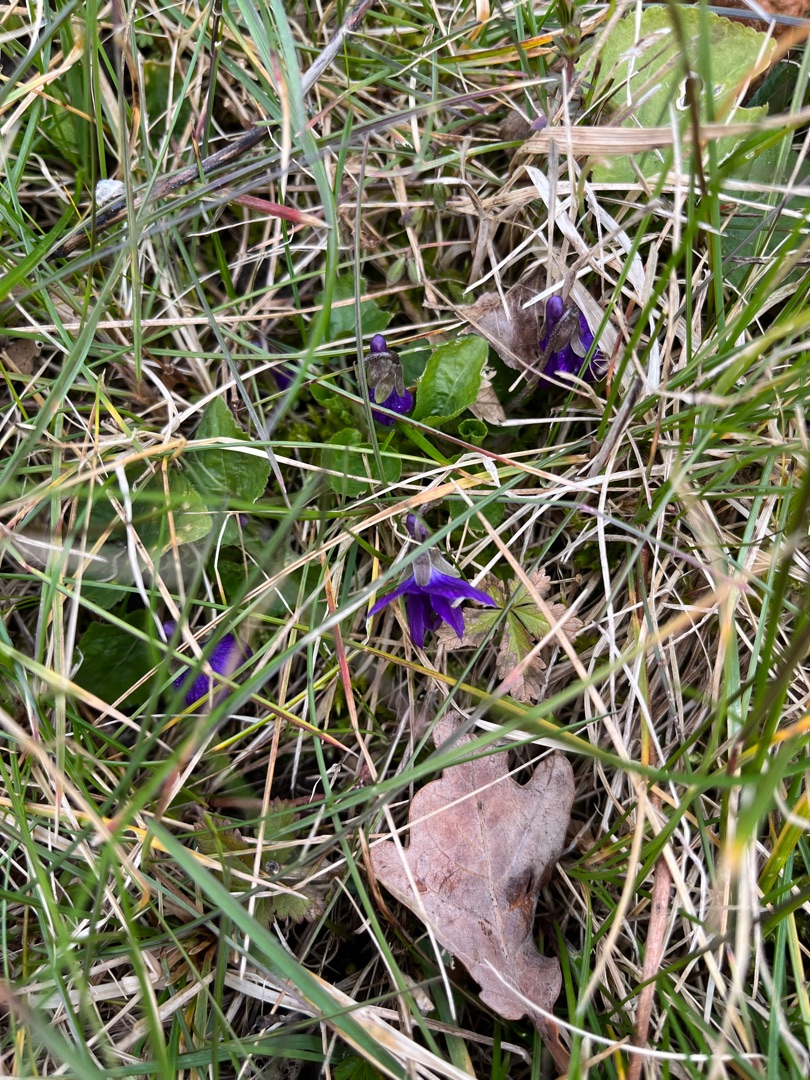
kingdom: Plantae
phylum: Tracheophyta
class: Magnoliopsida
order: Malpighiales
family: Violaceae
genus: Viola
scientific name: Viola odorata
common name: Marts-viol
